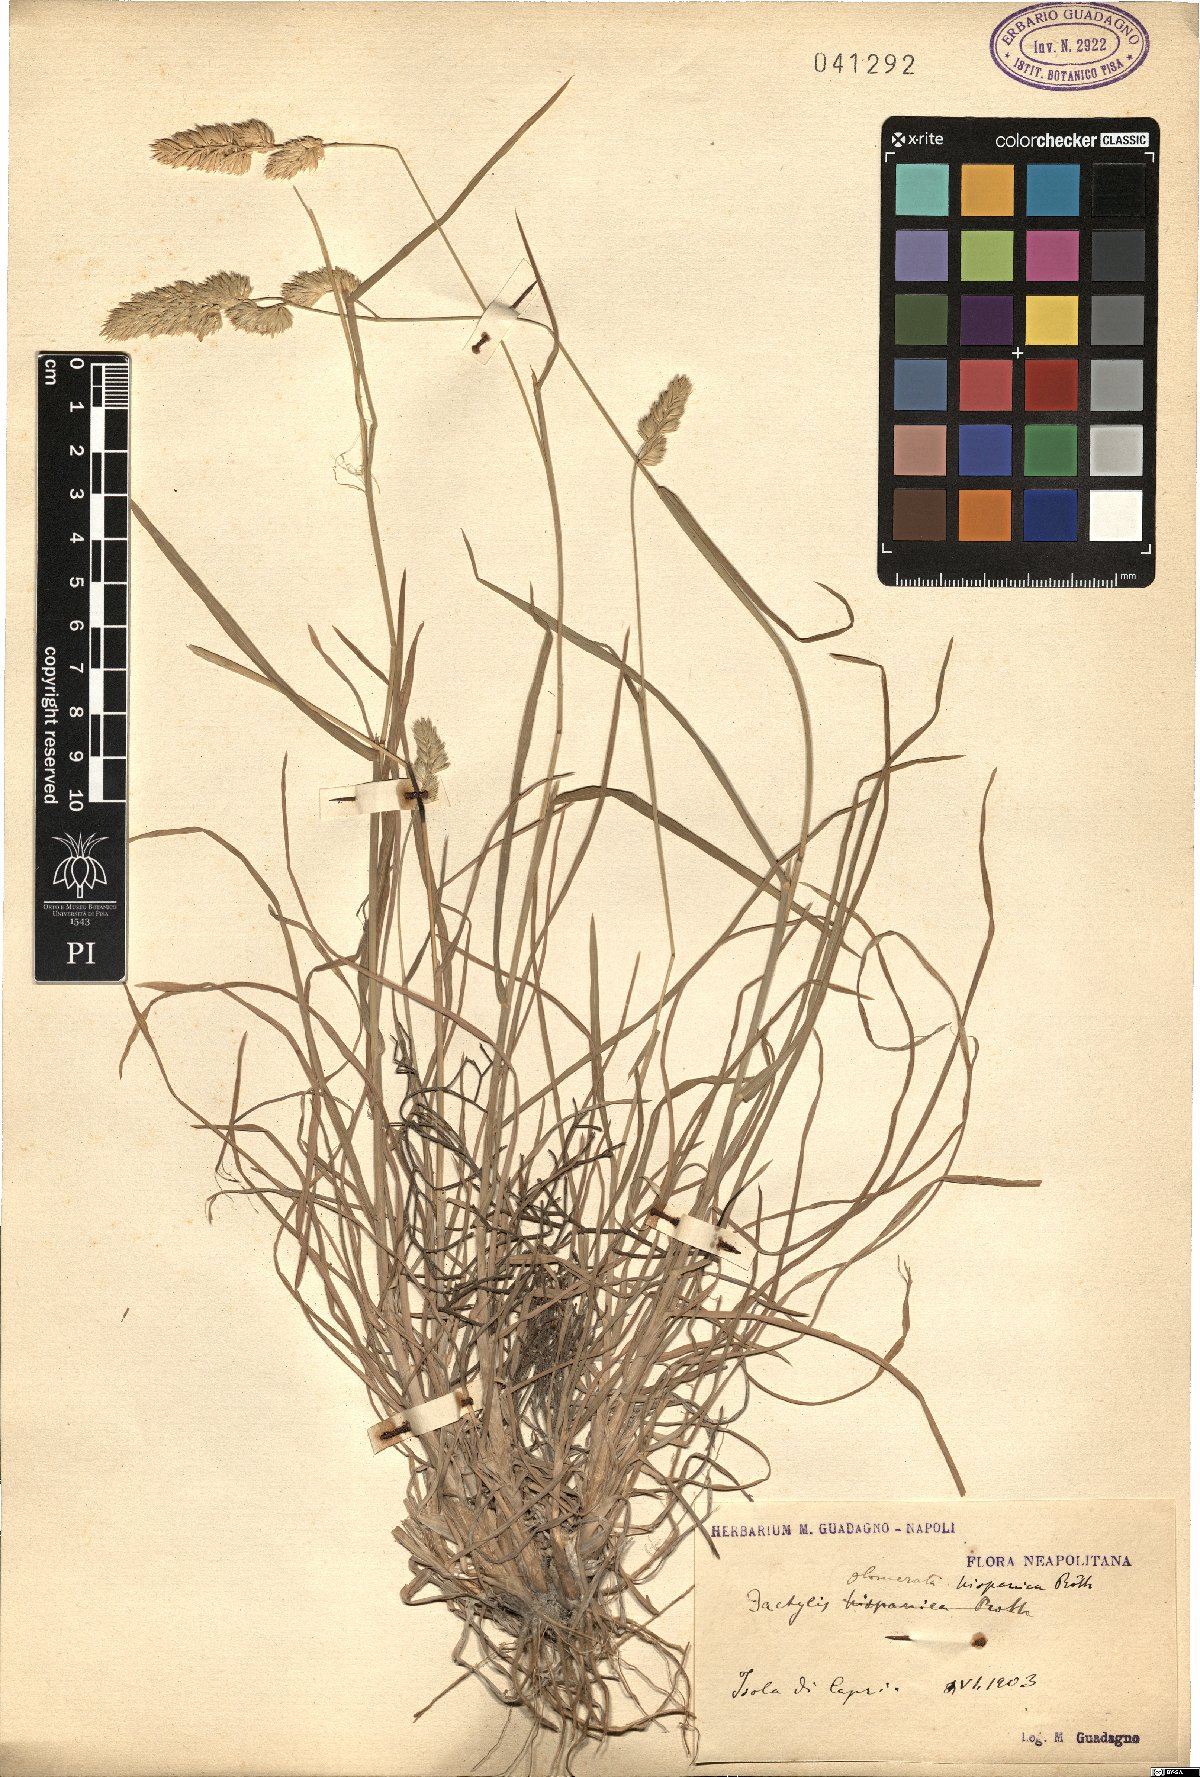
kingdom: Plantae
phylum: Tracheophyta
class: Liliopsida
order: Poales
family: Poaceae
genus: Dactylis
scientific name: Dactylis glomerata
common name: Orchardgrass
